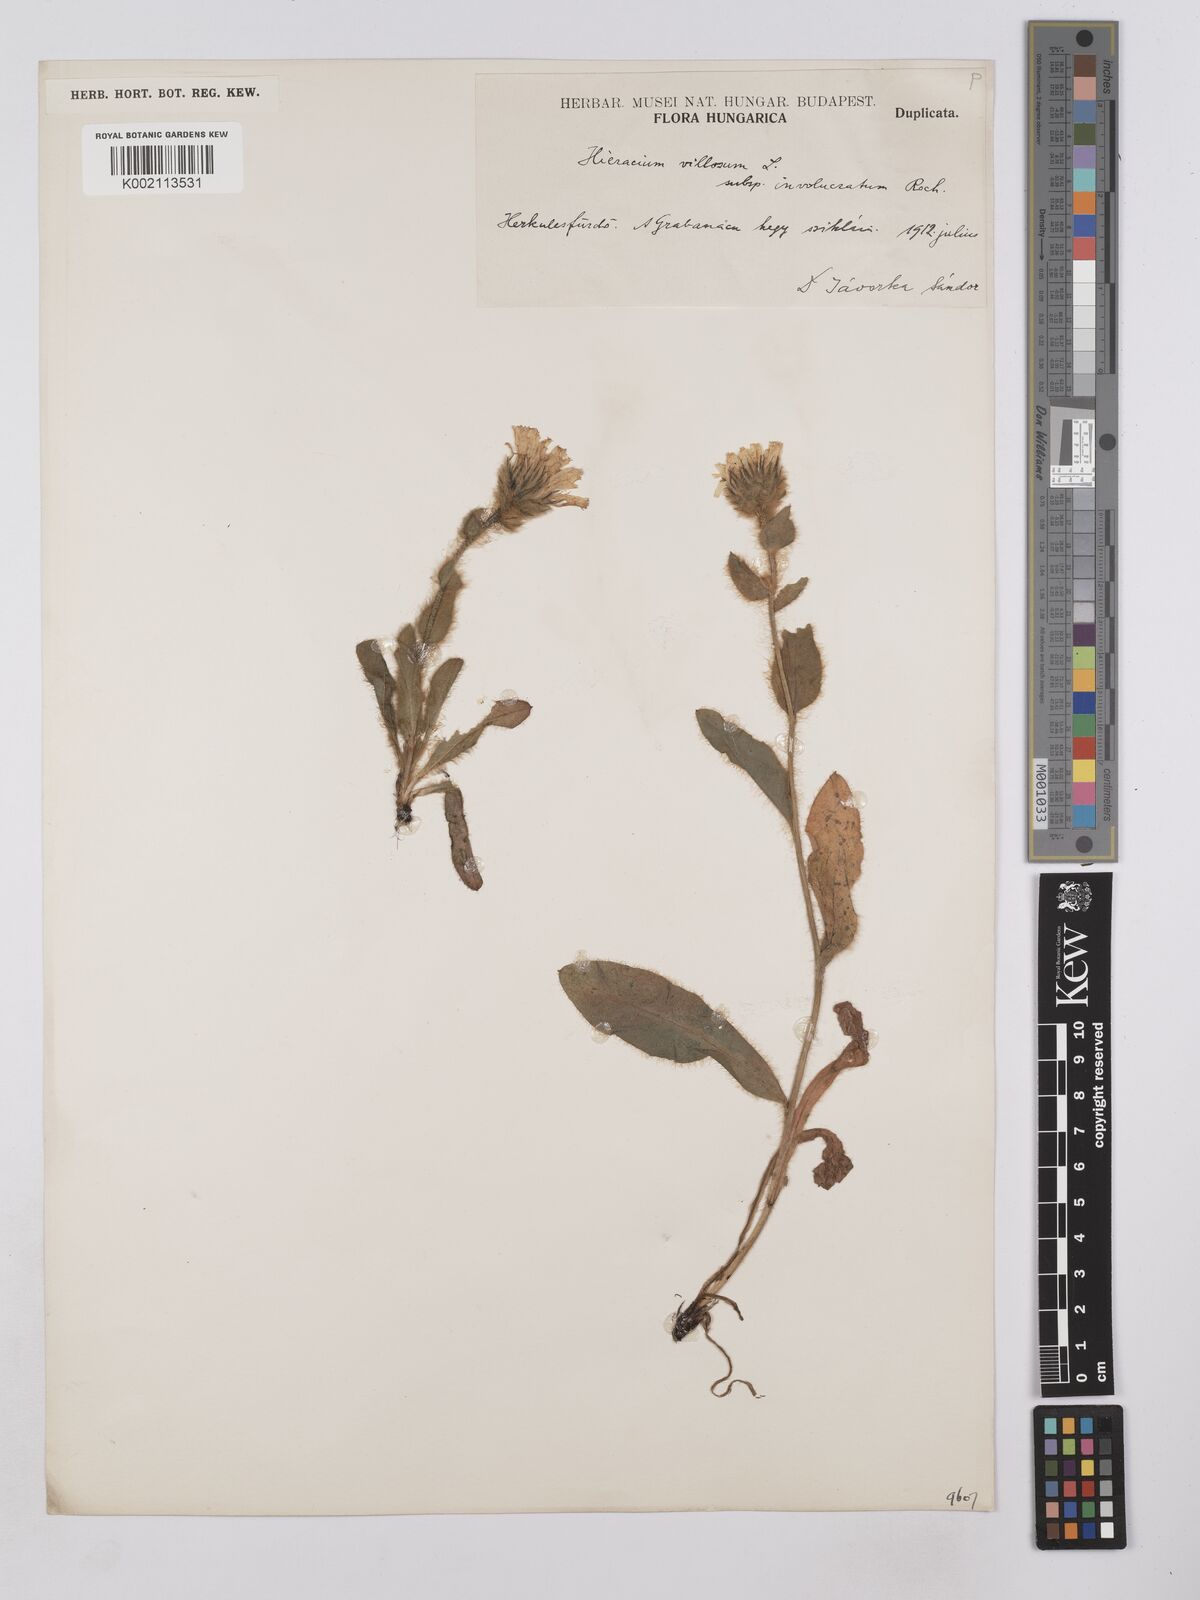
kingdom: Plantae
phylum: Tracheophyta
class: Magnoliopsida
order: Asterales
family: Asteraceae
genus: Hieracium
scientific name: Hieracium
